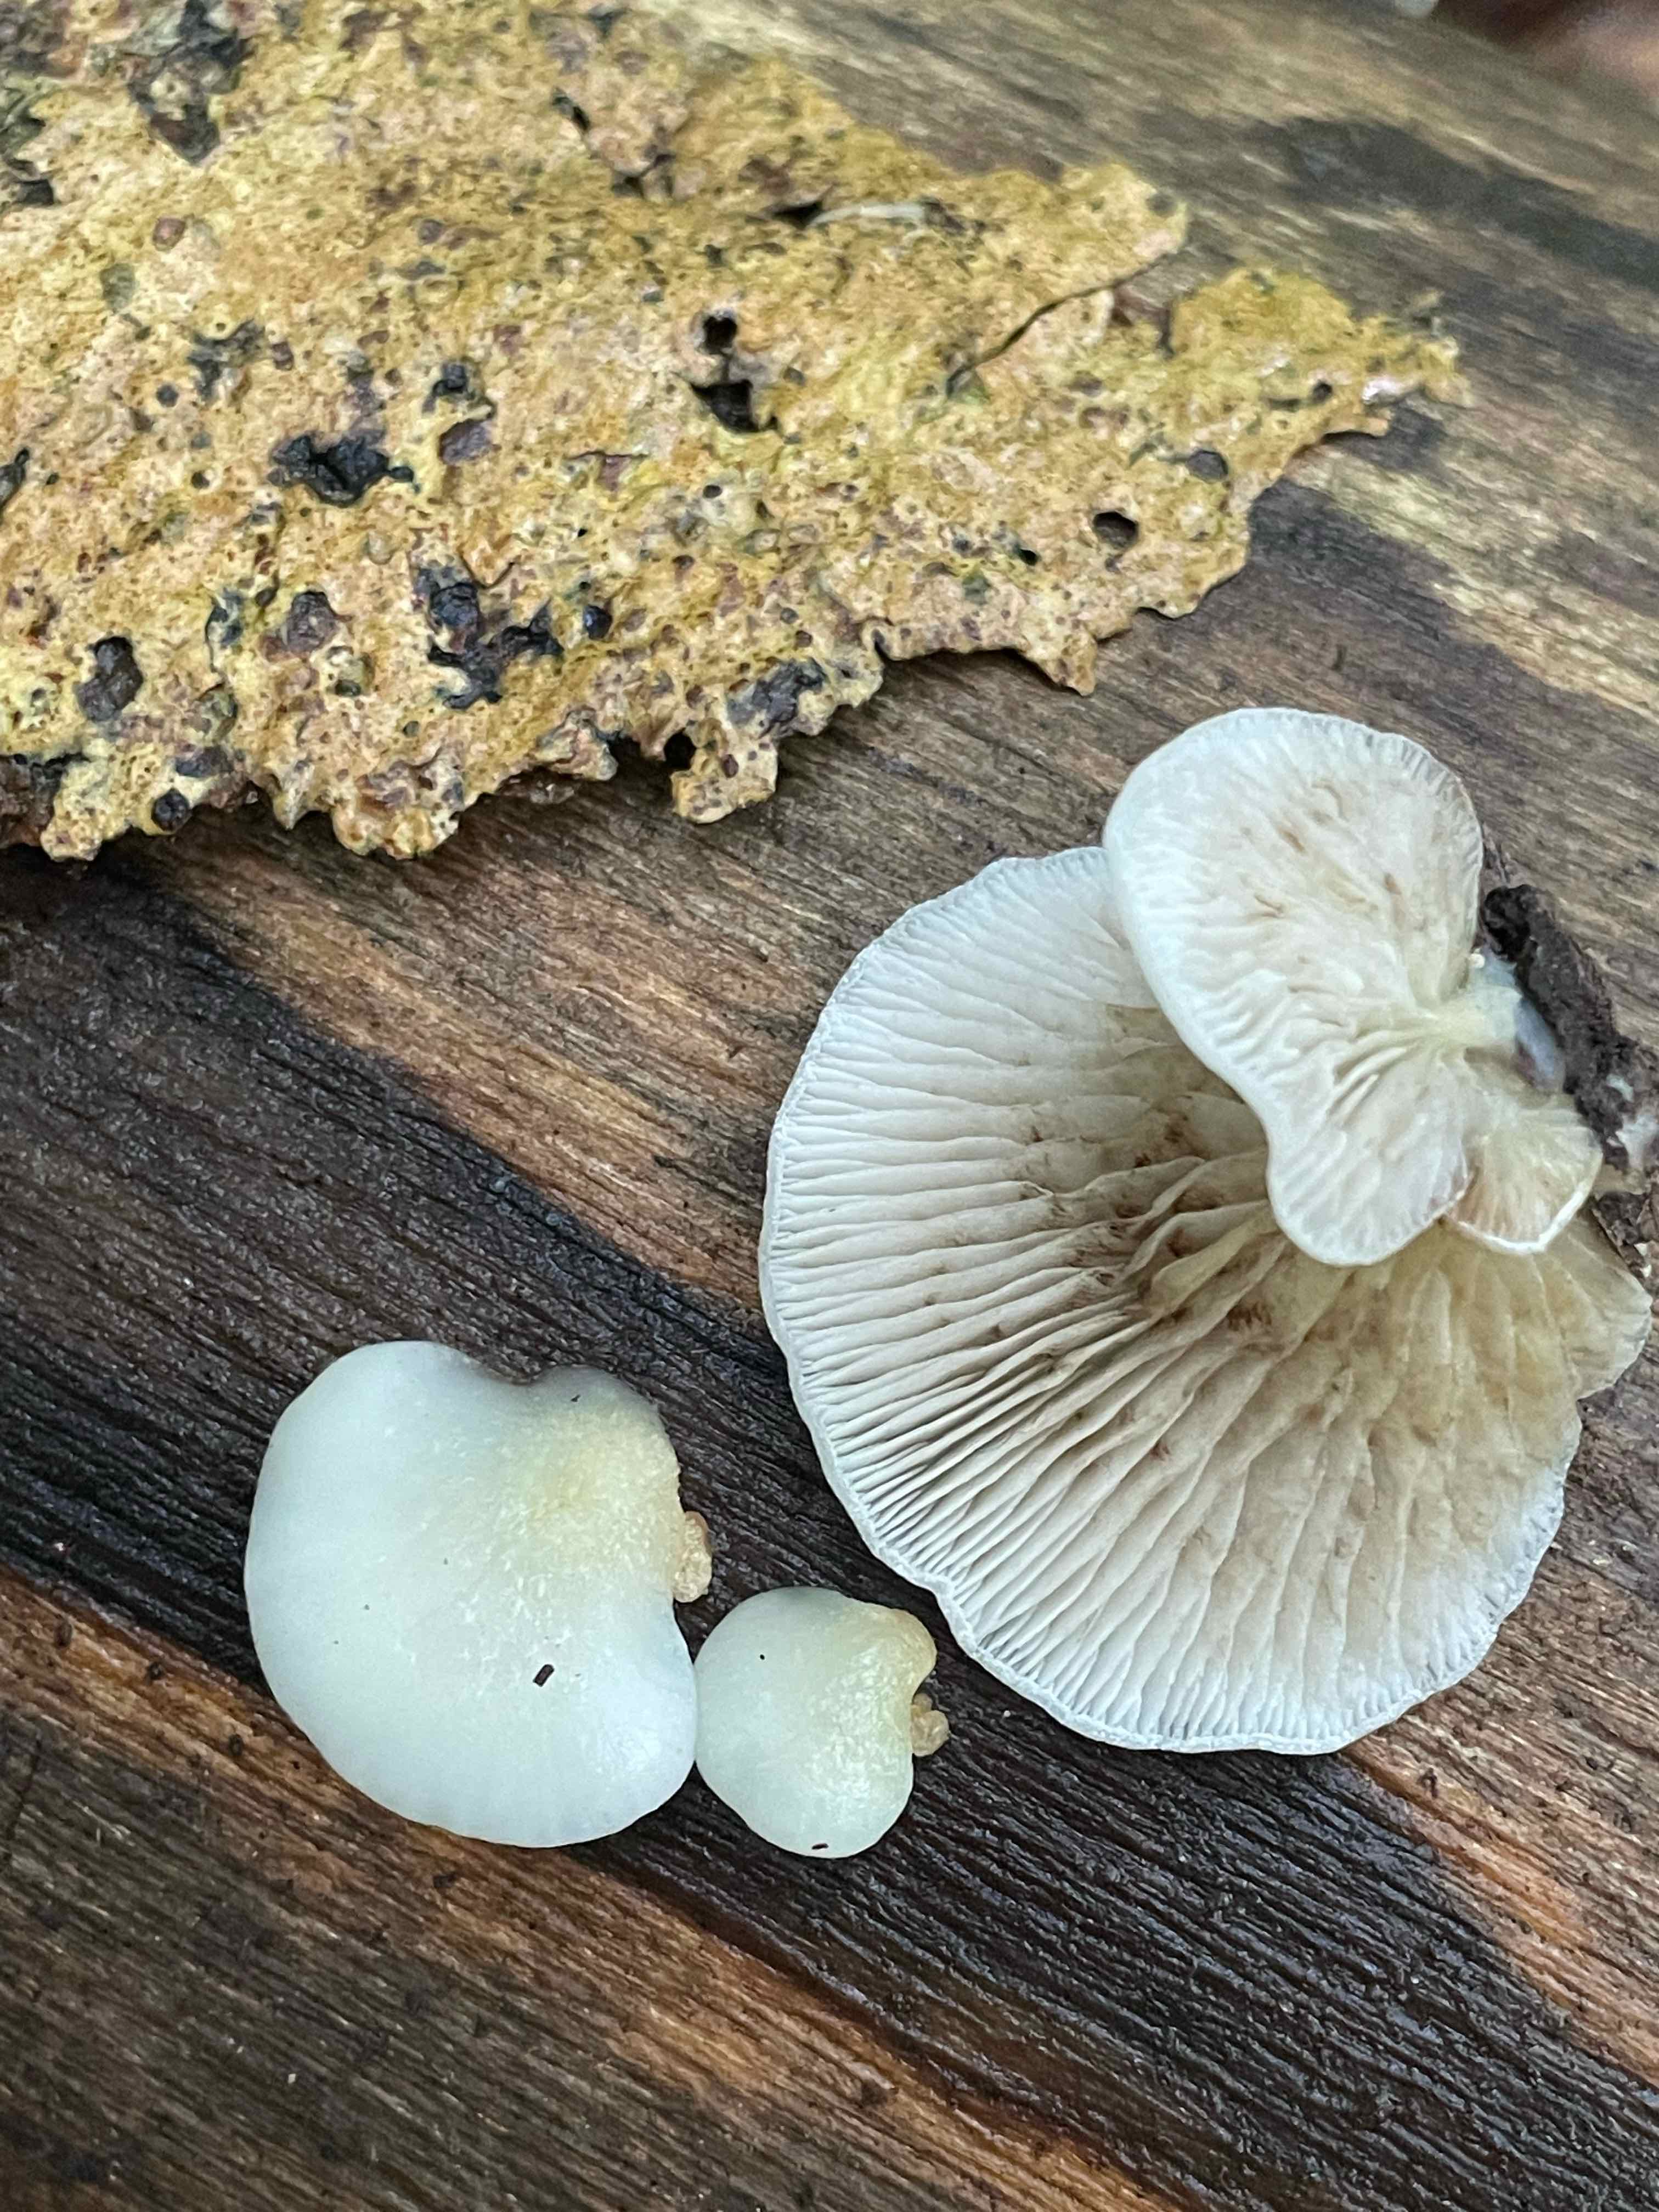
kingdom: Fungi
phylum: Basidiomycota
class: Agaricomycetes
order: Agaricales
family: Crepidotaceae
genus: Crepidotus
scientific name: Crepidotus mollis
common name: blød muslingesvamp
